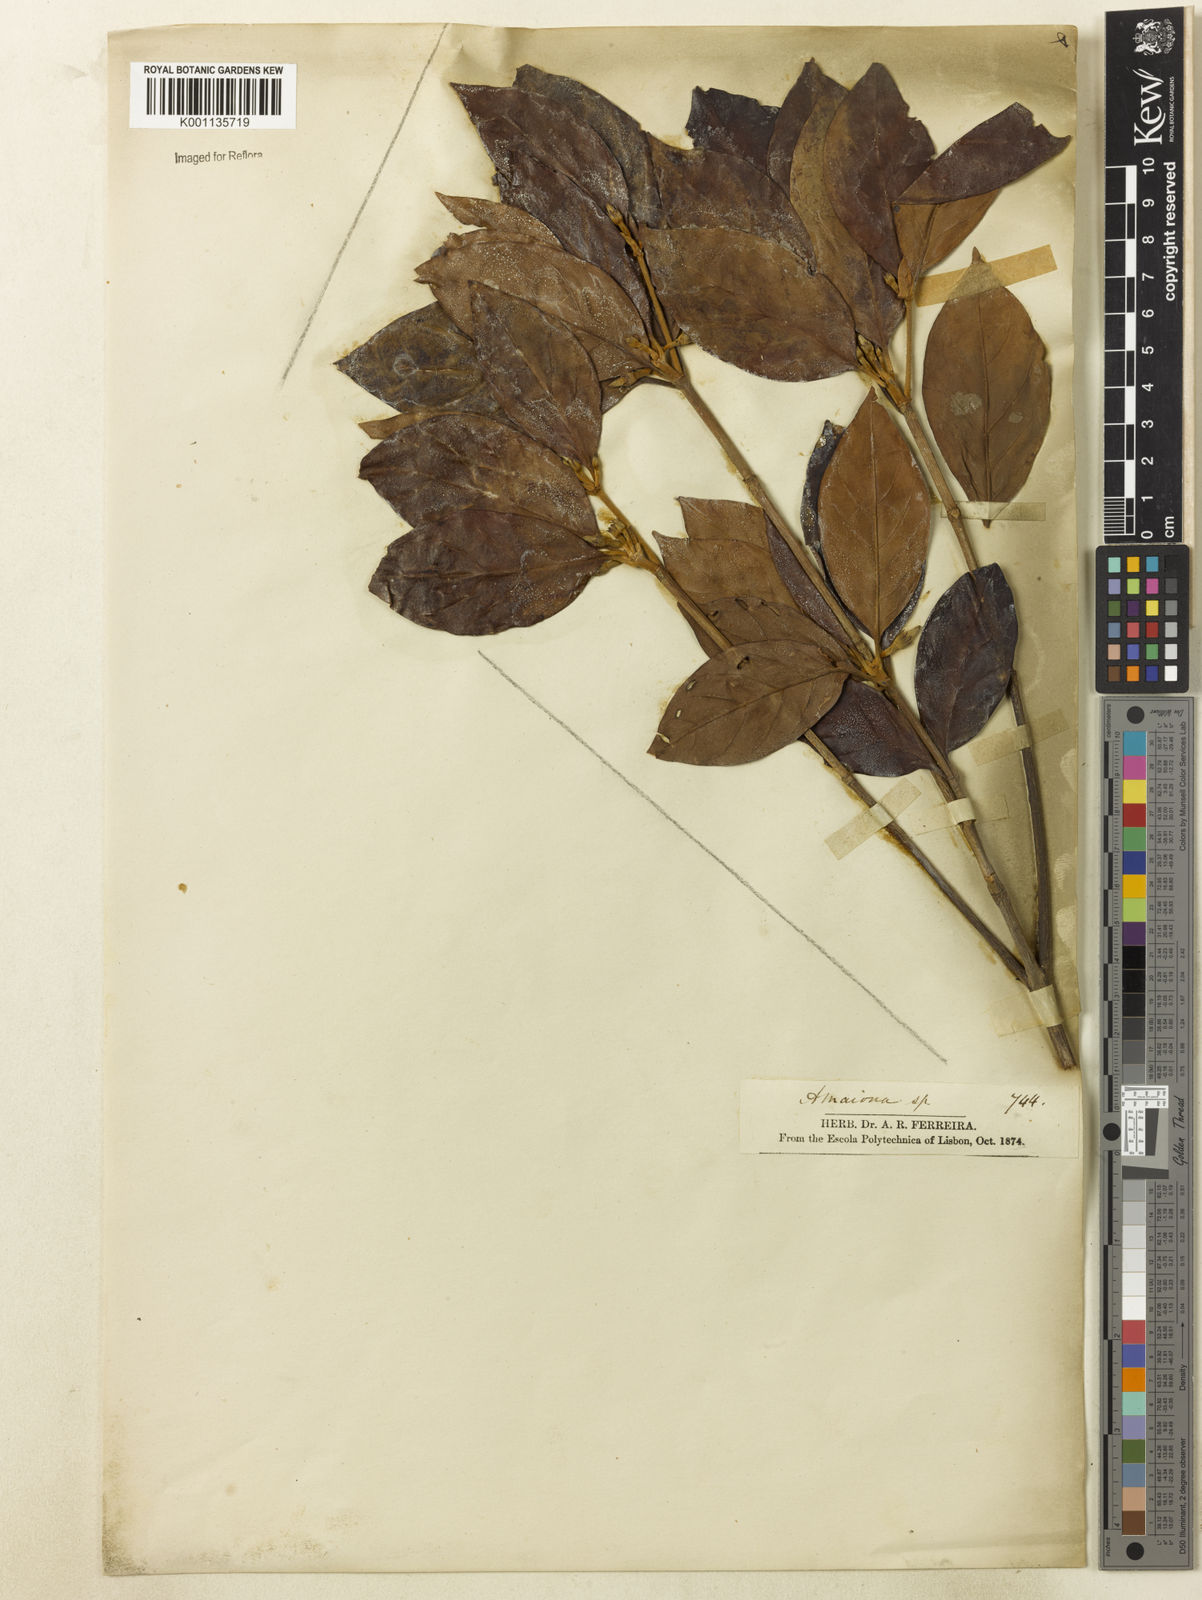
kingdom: Plantae
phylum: Tracheophyta
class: Magnoliopsida
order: Gentianales
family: Rubiaceae
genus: Amaioua
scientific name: Amaioua
